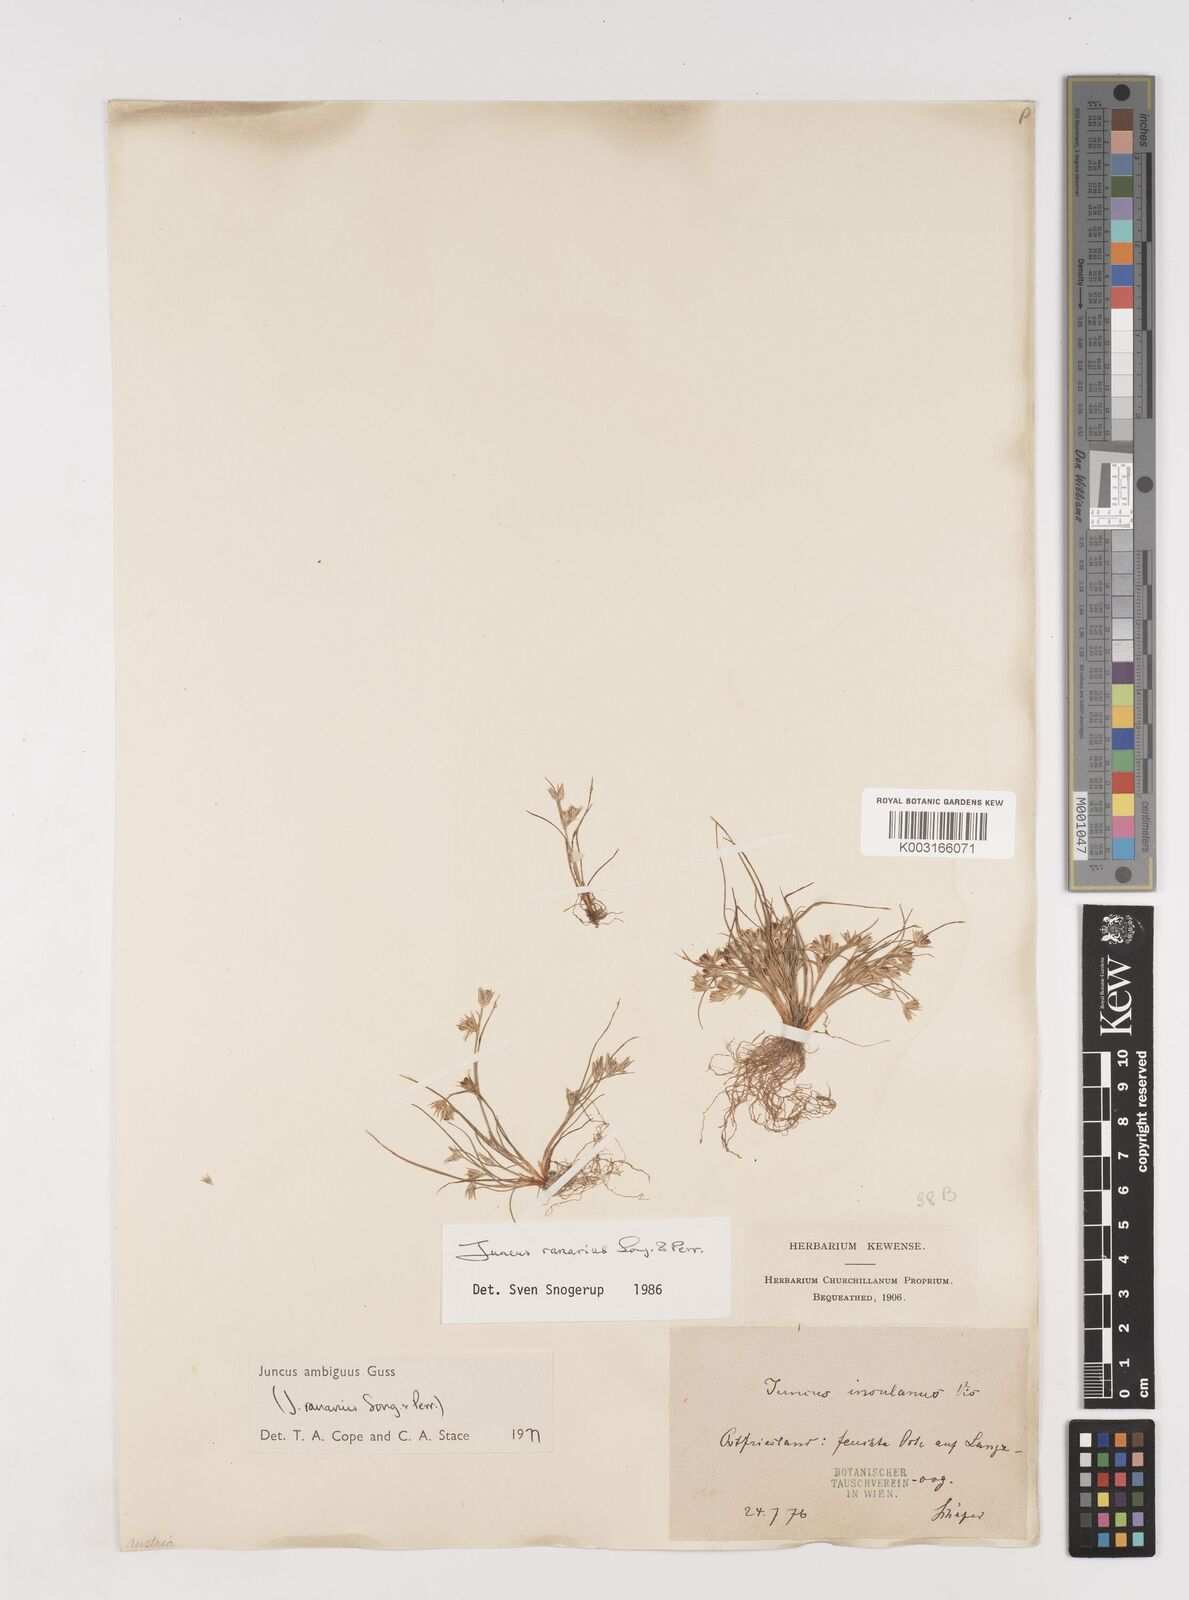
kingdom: Plantae
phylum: Tracheophyta
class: Liliopsida
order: Poales
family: Juncaceae
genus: Juncus
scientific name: Juncus hybridus
